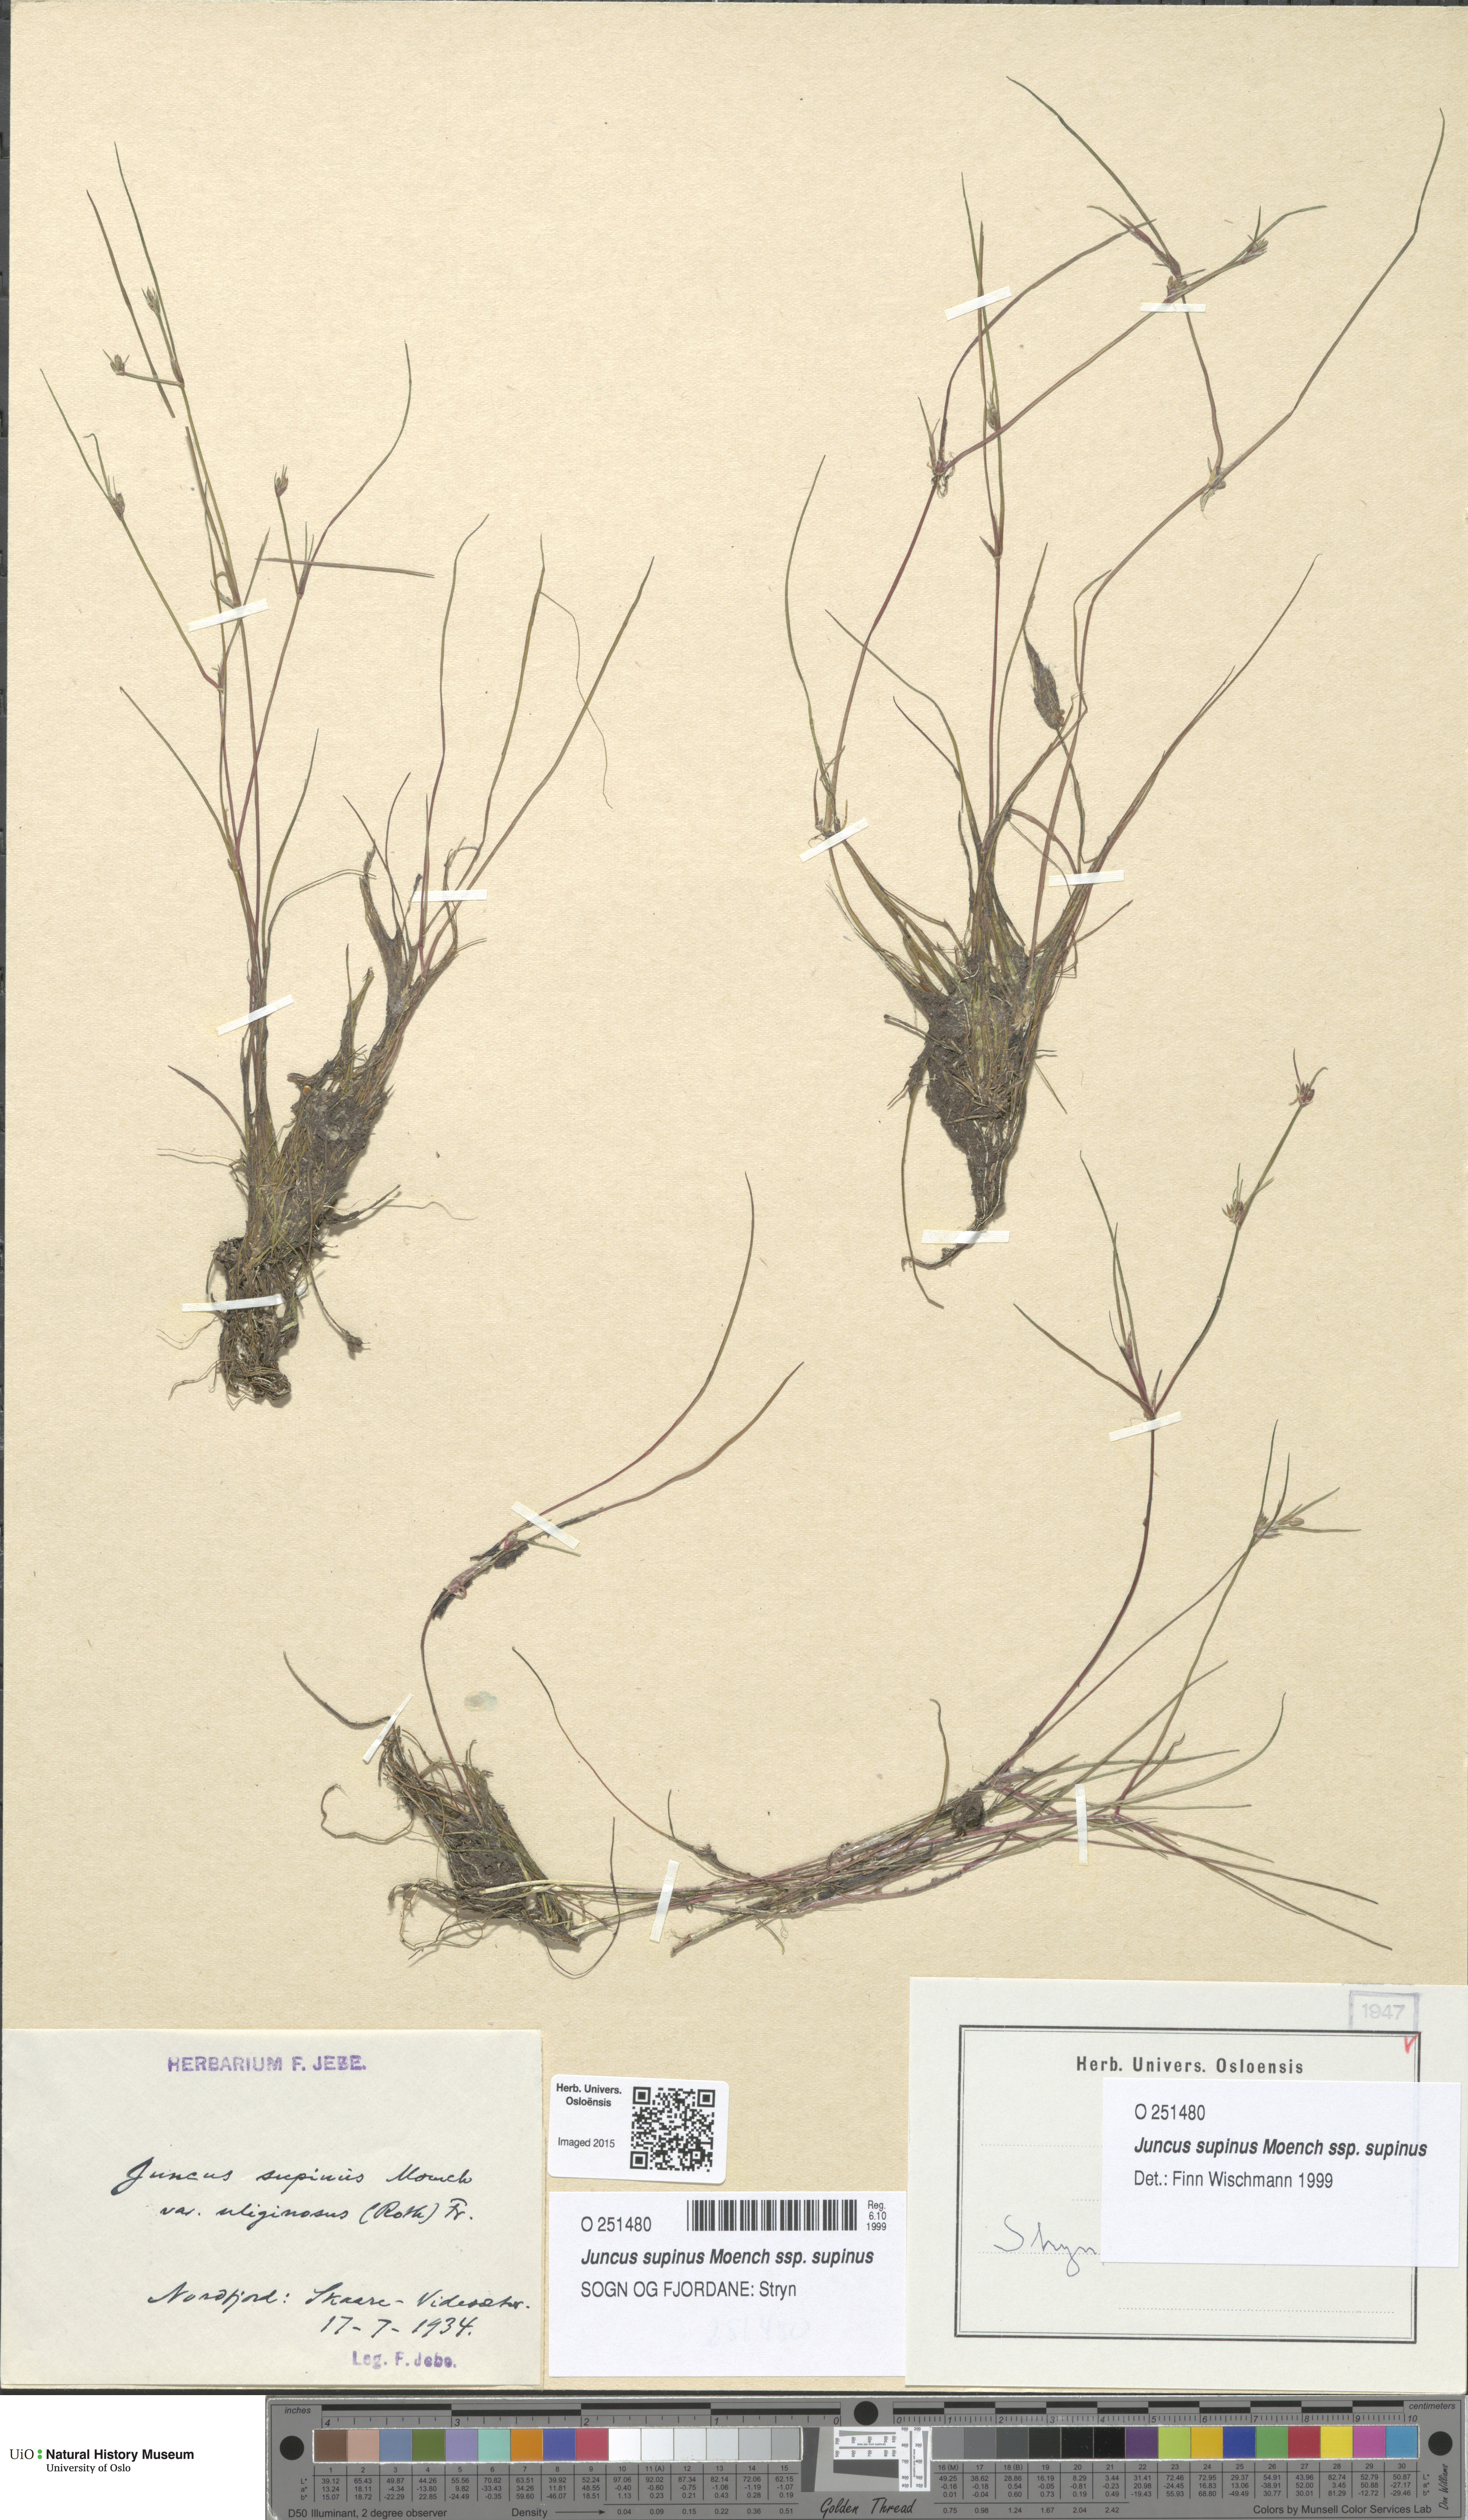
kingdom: Plantae
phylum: Tracheophyta
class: Liliopsida
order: Poales
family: Juncaceae
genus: Juncus
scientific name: Juncus bulbosus
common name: Bulbous rush
